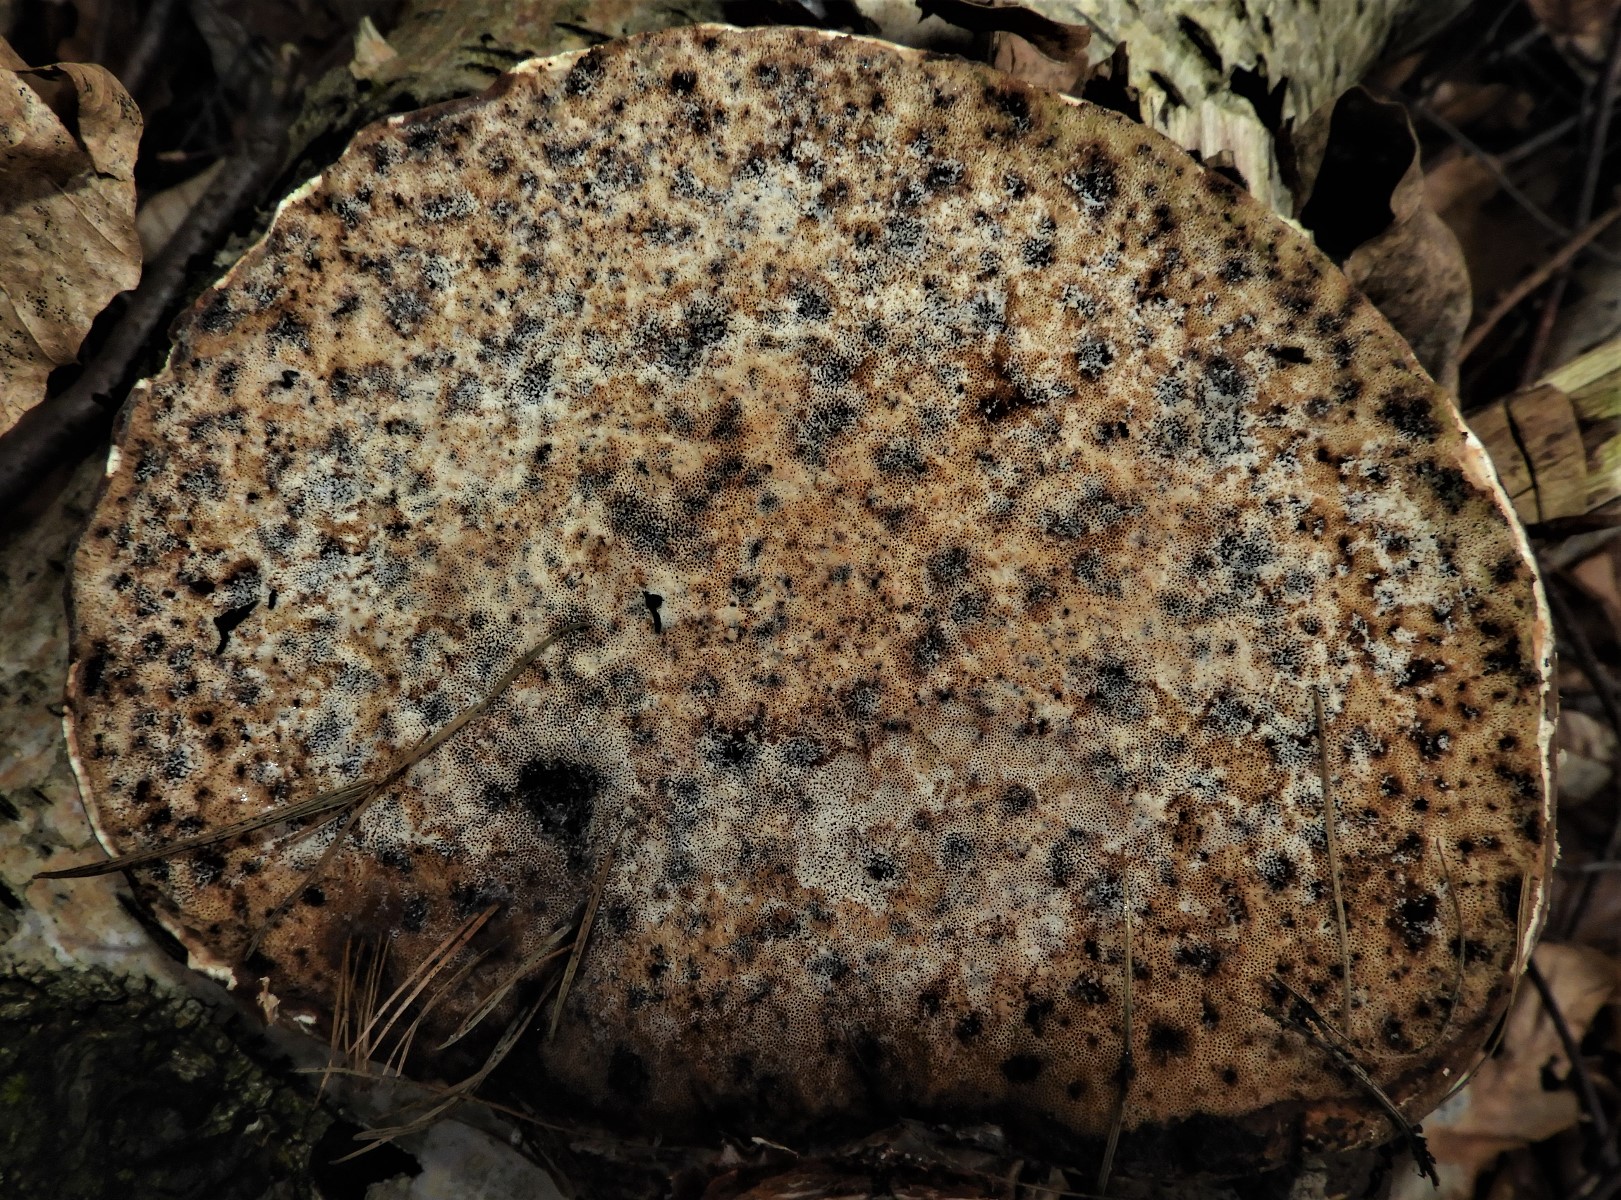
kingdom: Fungi
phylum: Basidiomycota
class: Agaricomycetes
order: Polyporales
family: Fomitopsidaceae
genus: Fomitopsis
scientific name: Fomitopsis betulina
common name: birkeporesvamp
